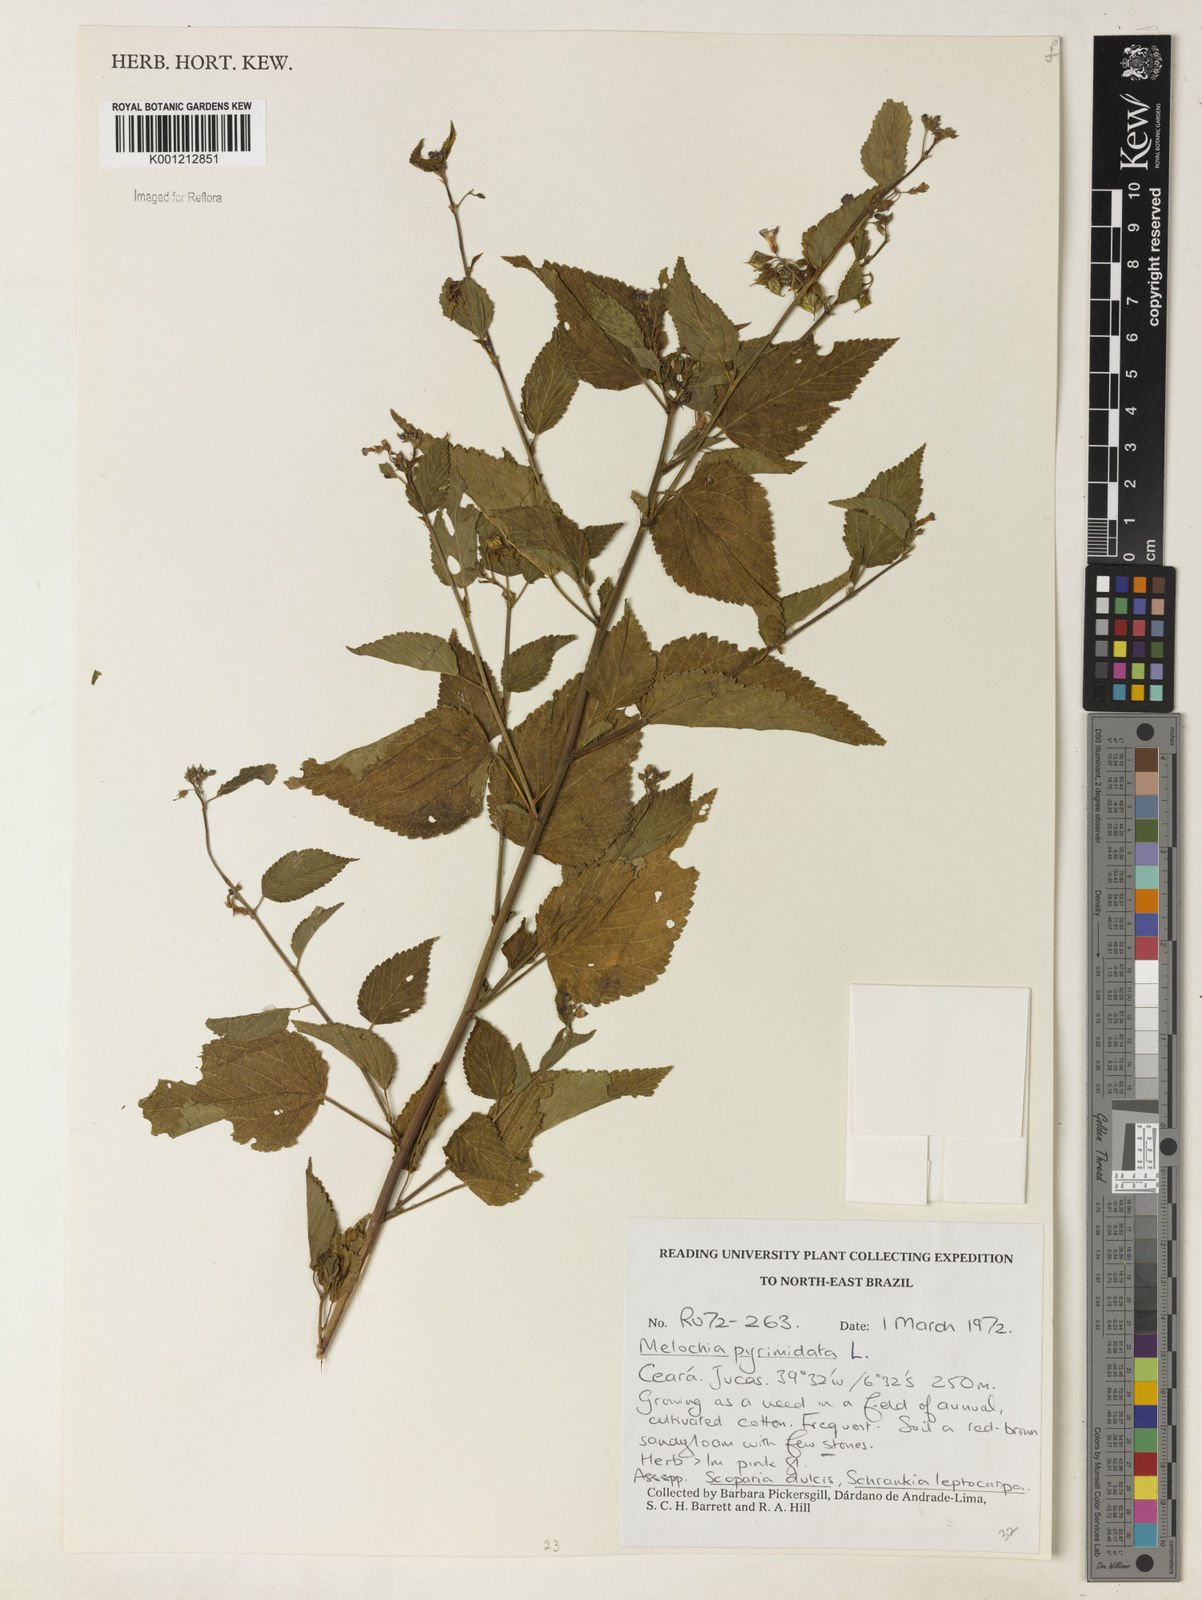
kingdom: Plantae
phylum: Tracheophyta
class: Magnoliopsida
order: Malvales
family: Malvaceae
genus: Melochia
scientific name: Melochia pyramidata
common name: Pyramidflower
